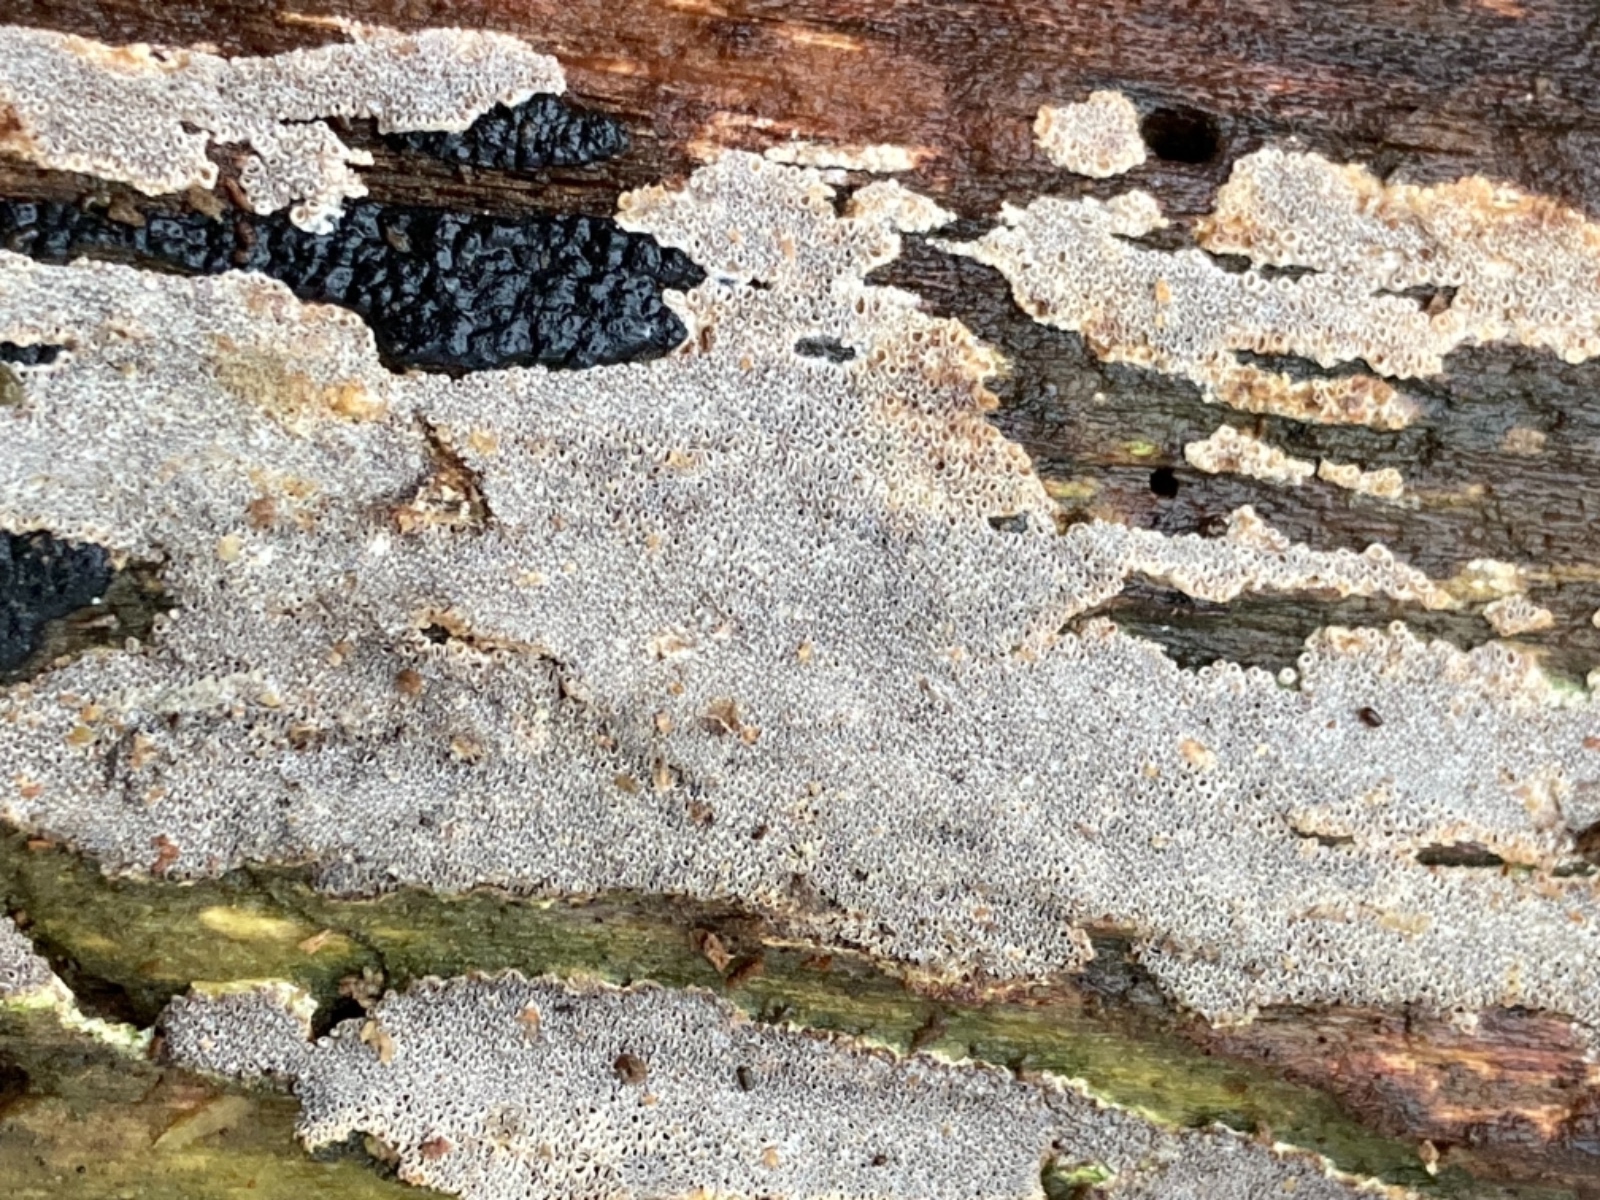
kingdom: Fungi
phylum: Basidiomycota
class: Agaricomycetes
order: Agaricales
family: Pleurotaceae
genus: Resupinatus
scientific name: Resupinatus poriaeformis
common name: tæpperør
